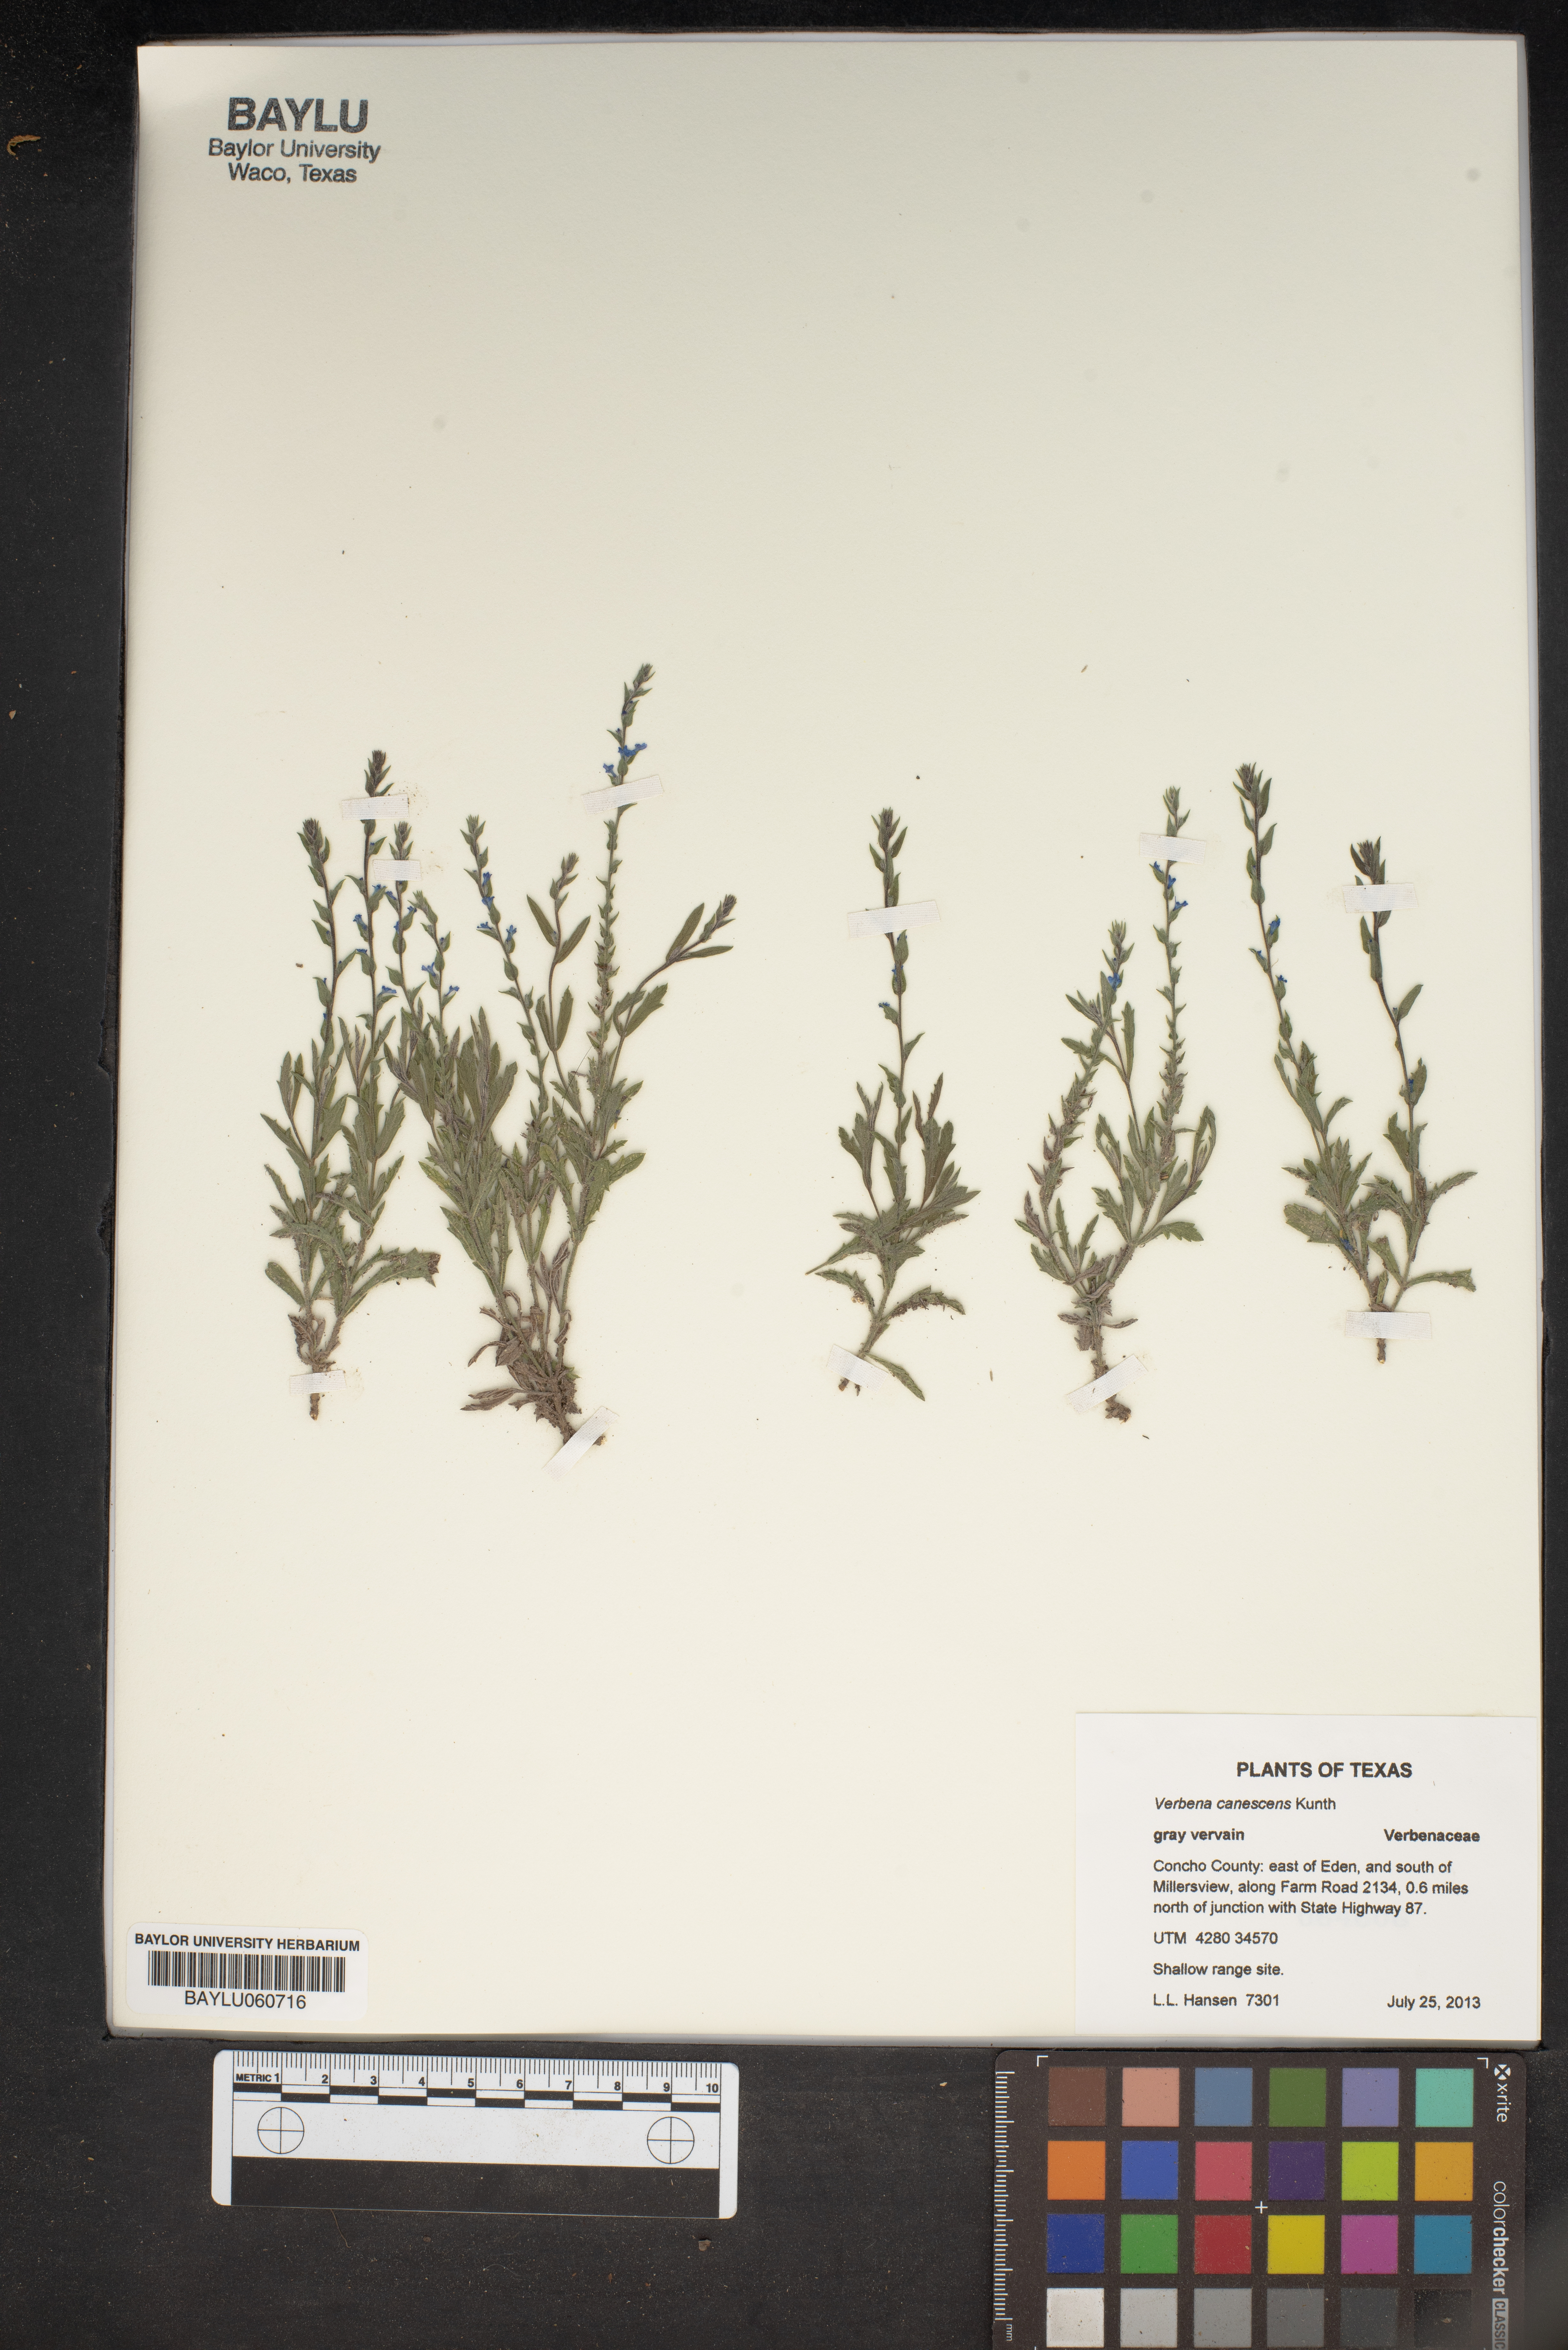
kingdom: Plantae
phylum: Tracheophyta
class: Magnoliopsida
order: Lamiales
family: Verbenaceae
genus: Verbena
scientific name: Verbena canescens
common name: Gray vervain
